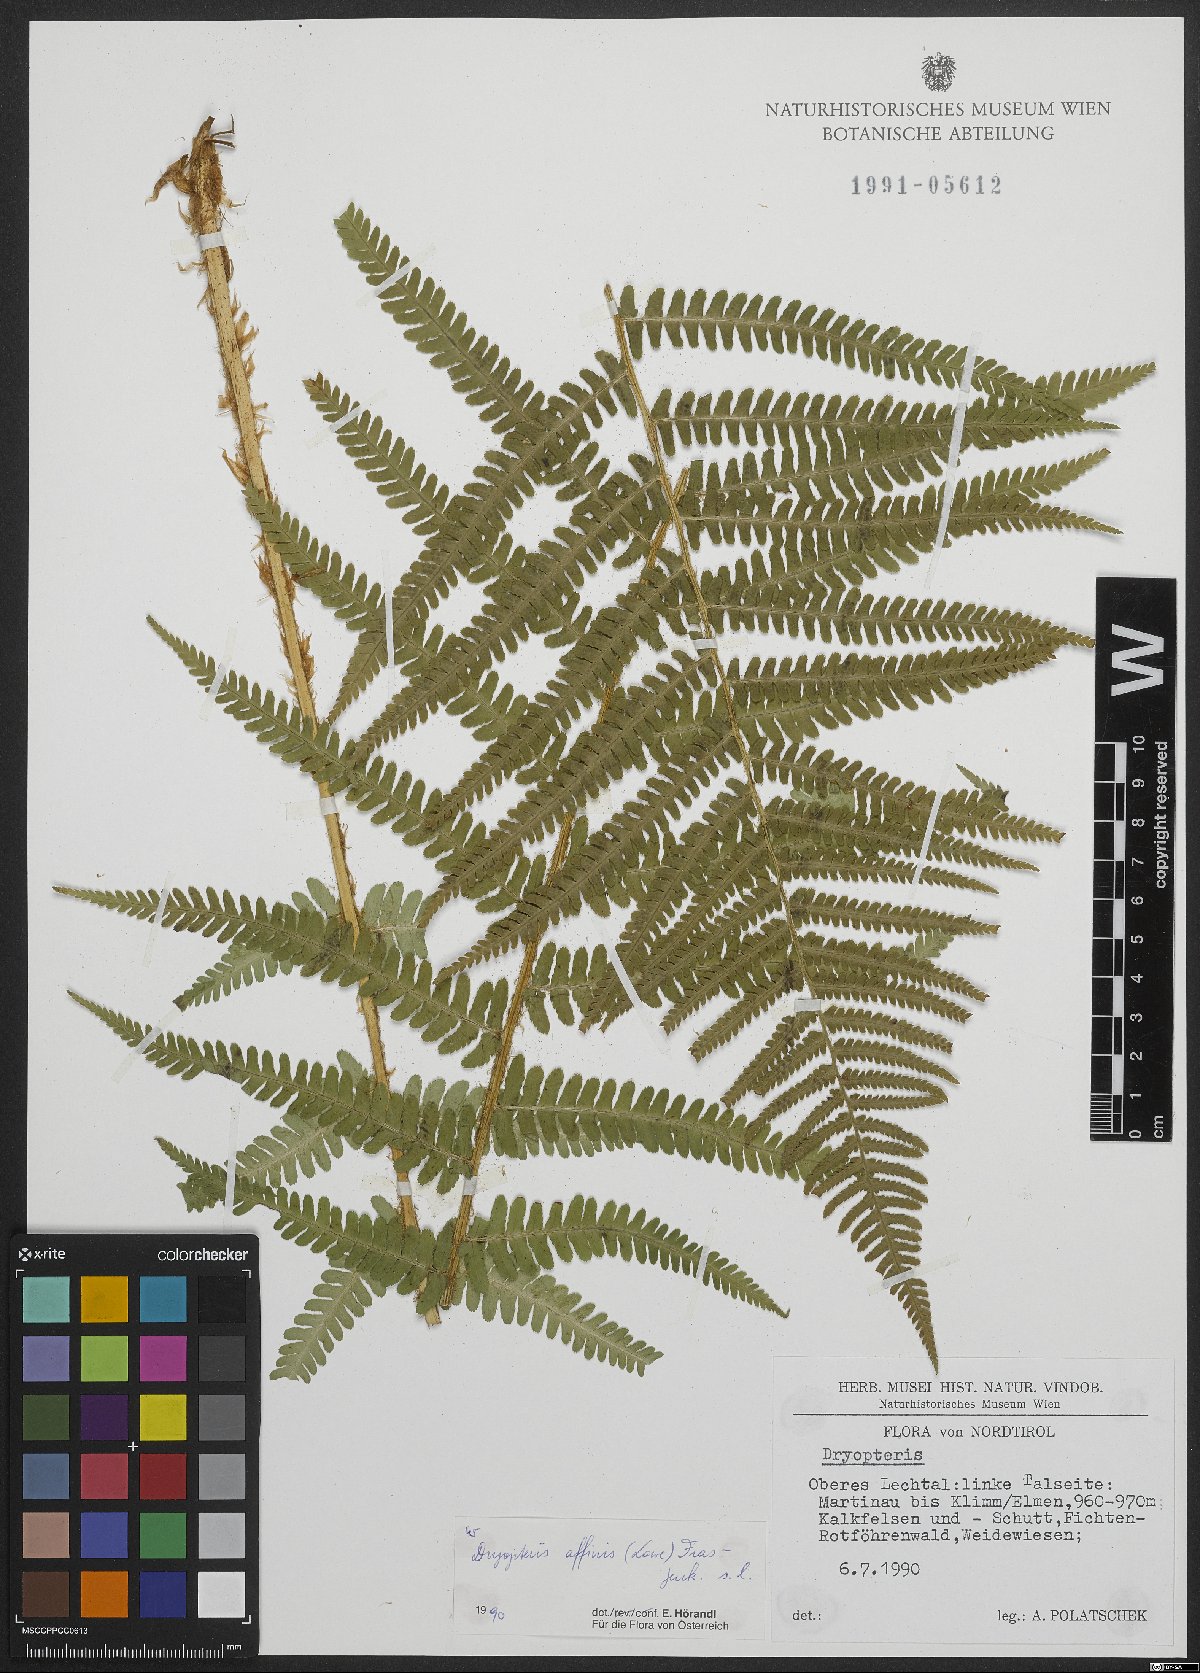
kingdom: Plantae
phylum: Tracheophyta
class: Polypodiopsida
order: Polypodiales
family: Dryopteridaceae
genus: Dryopteris
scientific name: Dryopteris filix-mas
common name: Male fern
